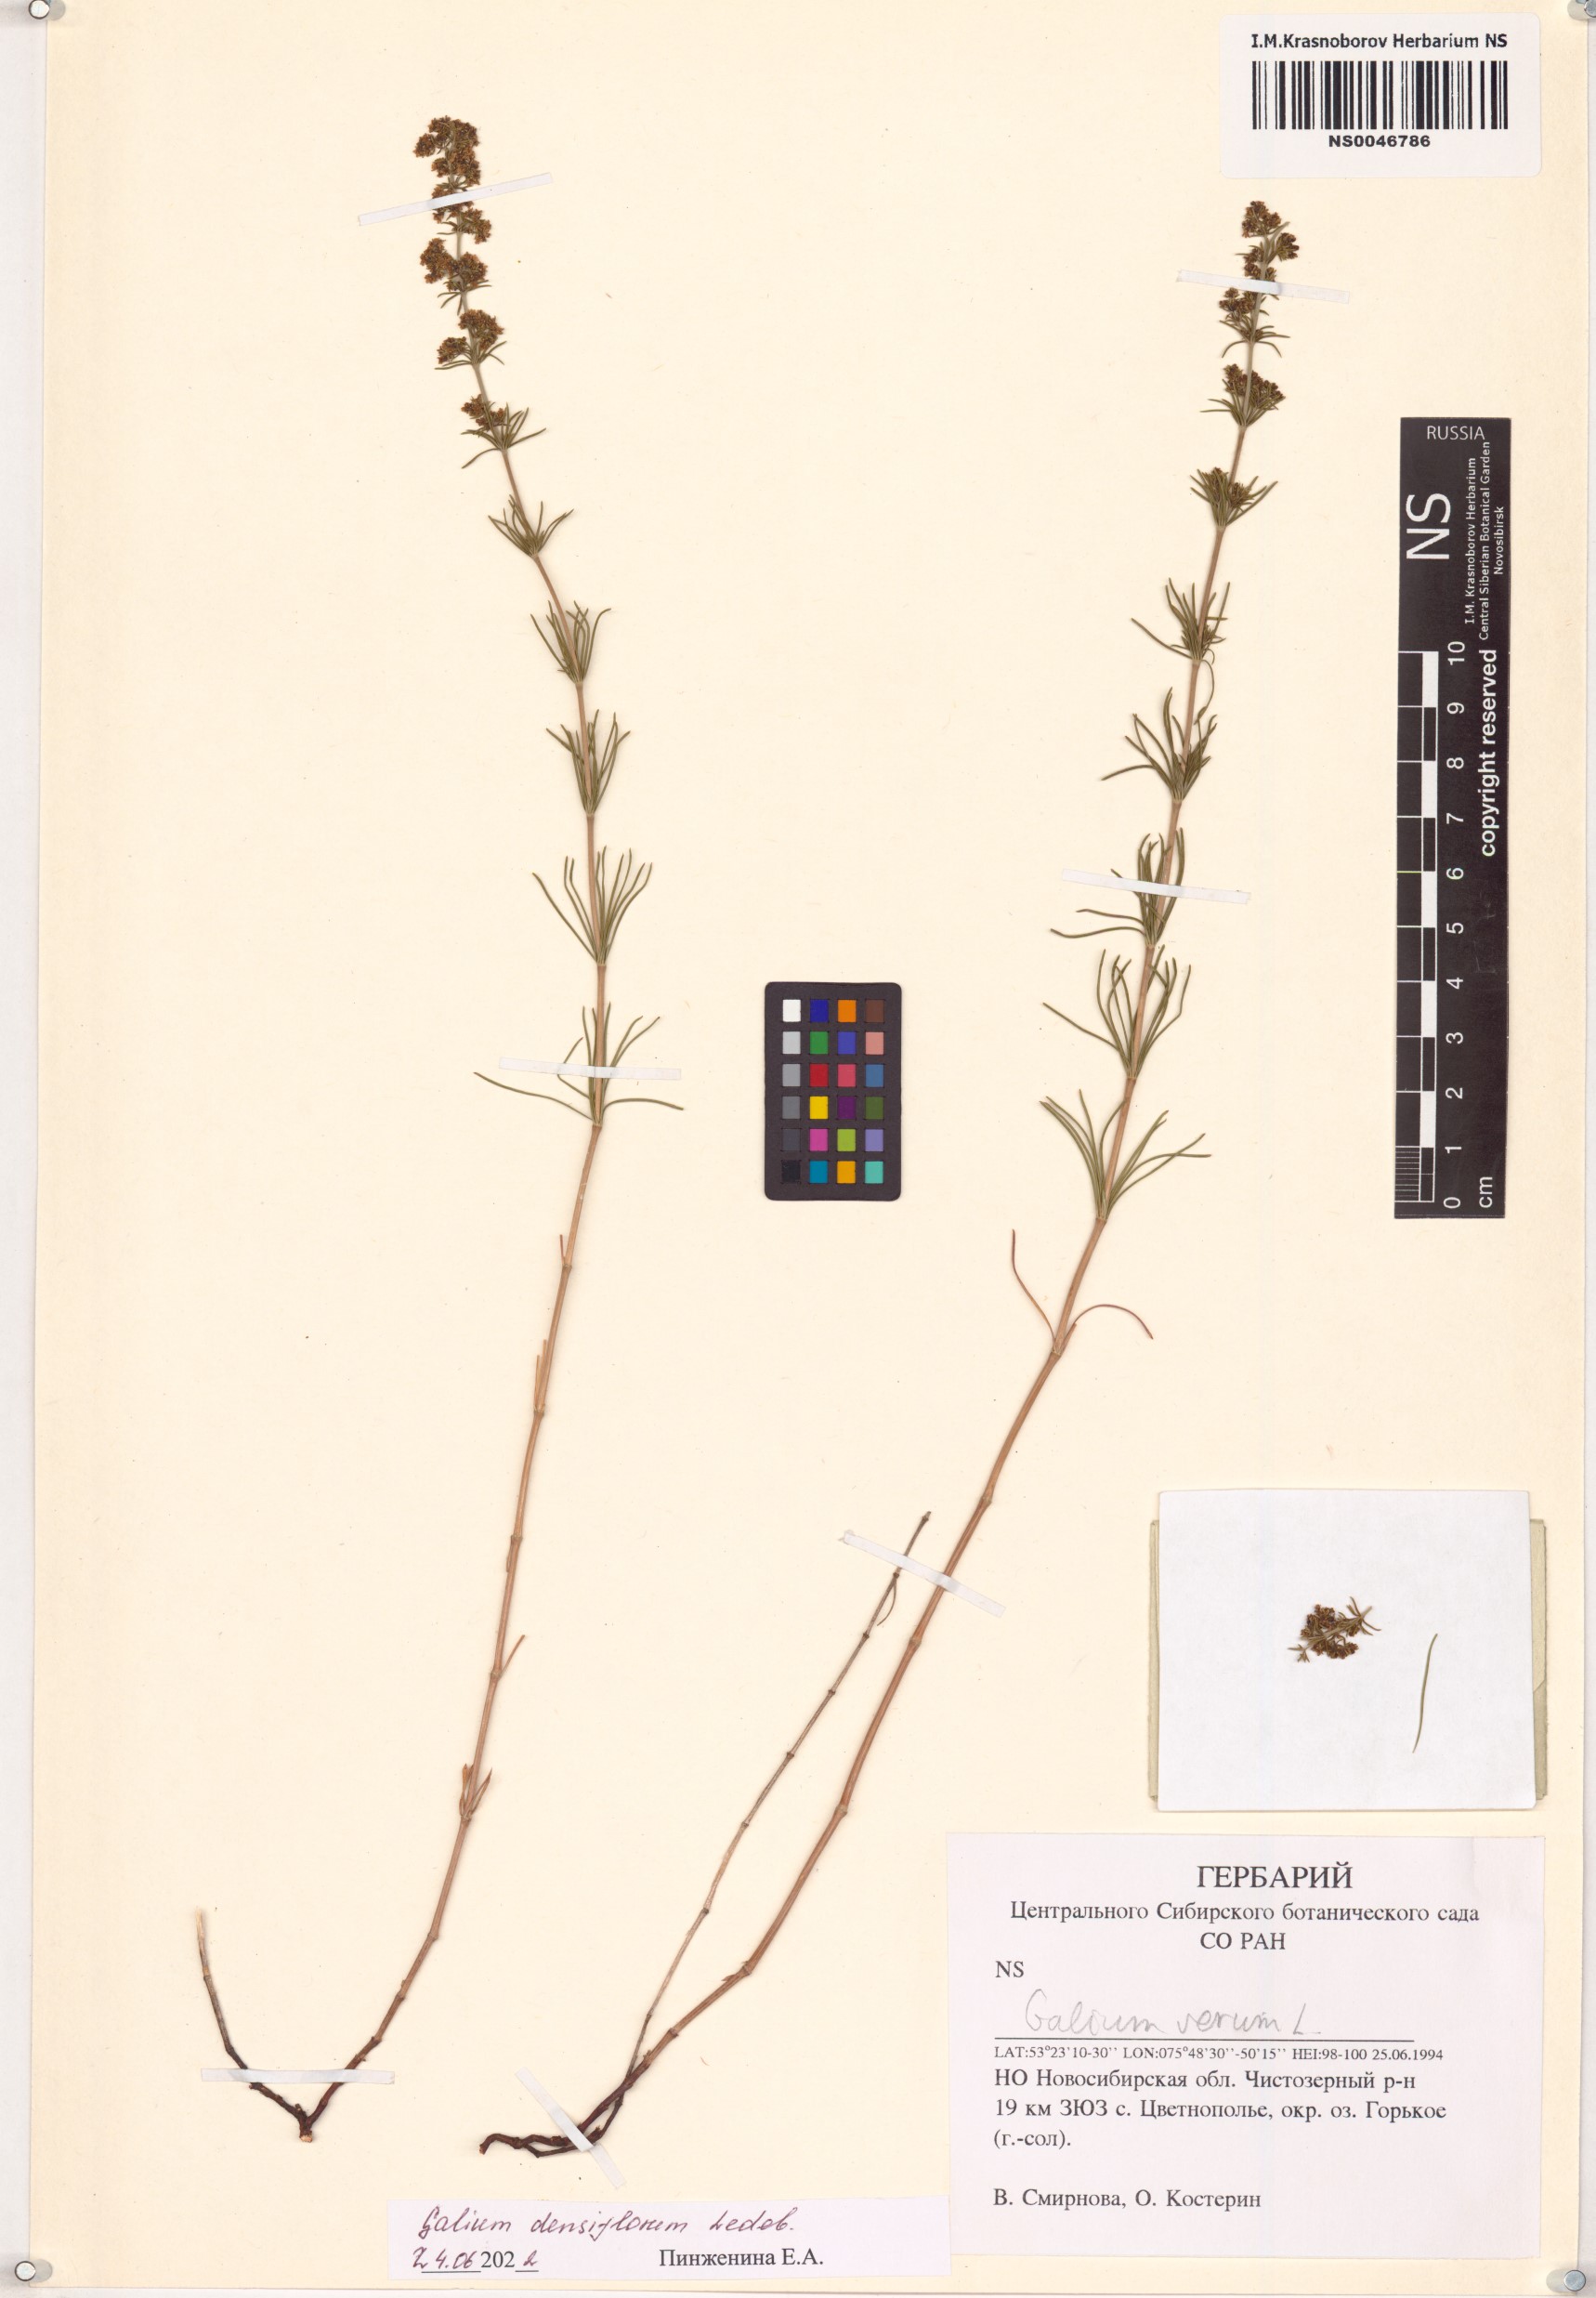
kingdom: Plantae
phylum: Tracheophyta
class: Magnoliopsida
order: Gentianales
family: Rubiaceae
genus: Galium
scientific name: Galium densiflorum
